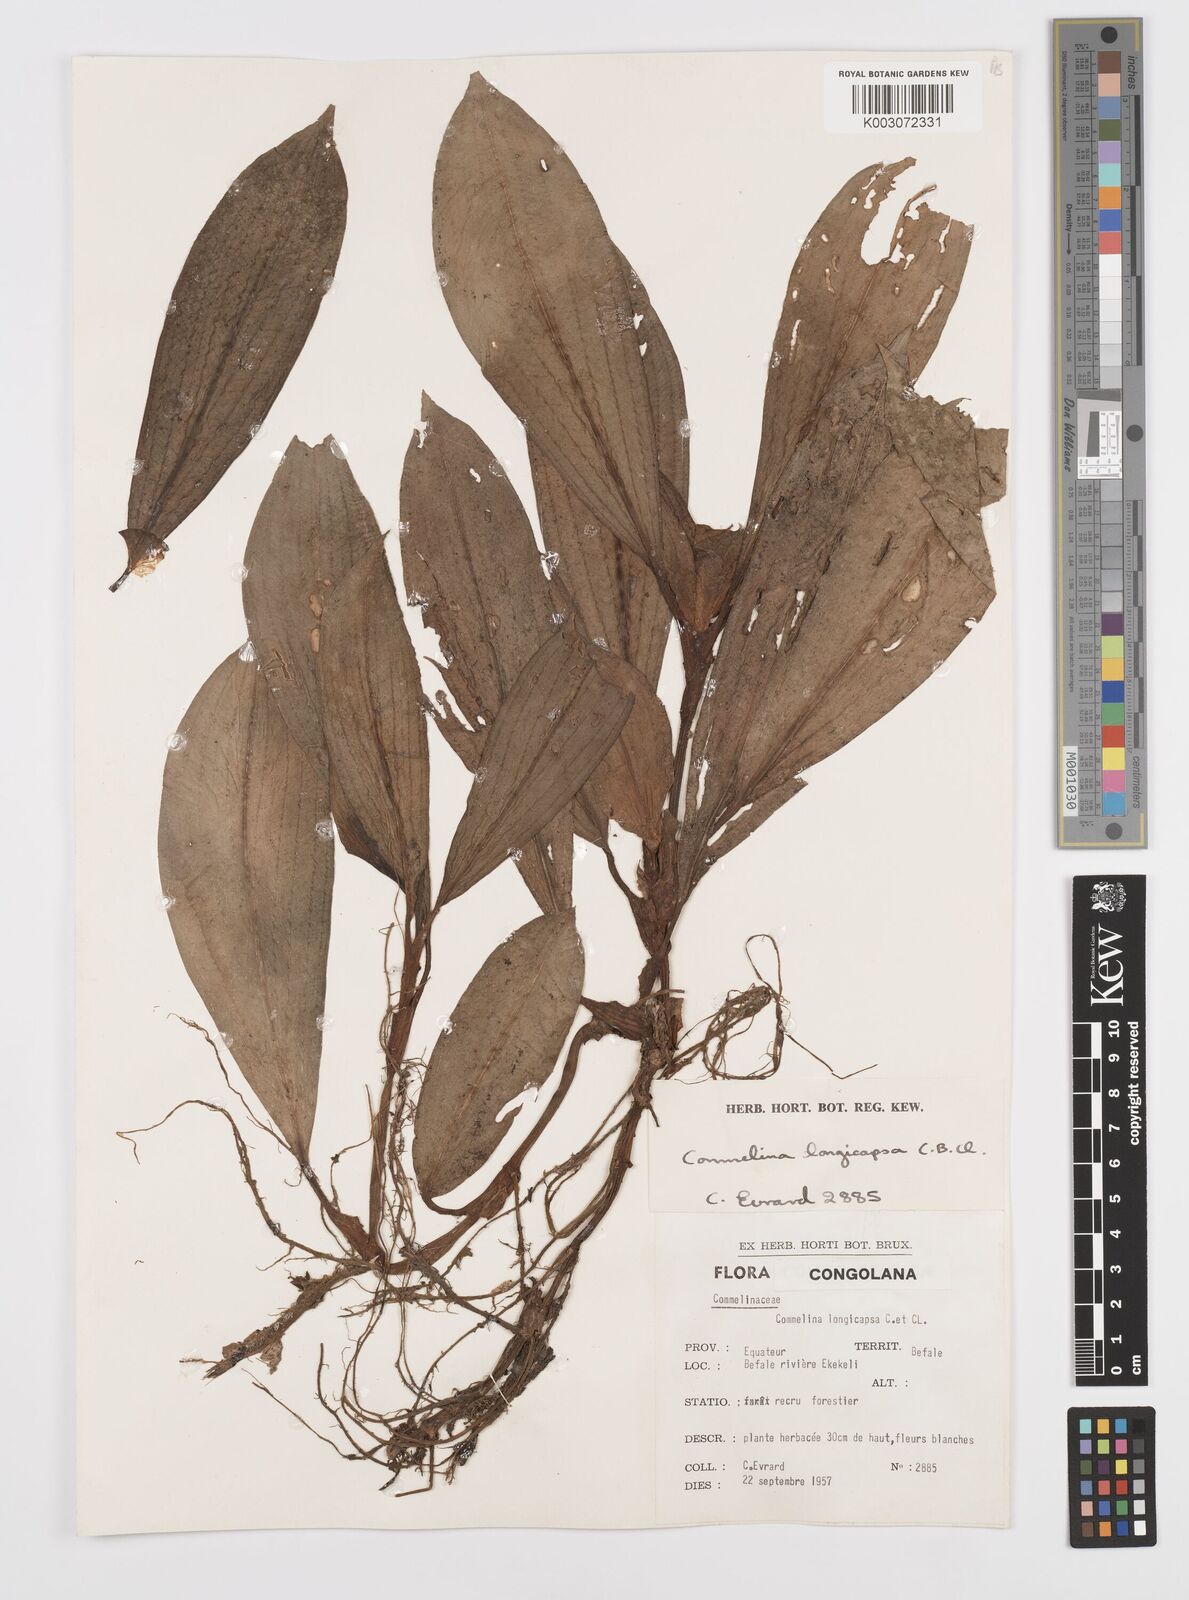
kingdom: Plantae
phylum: Tracheophyta
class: Liliopsida
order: Commelinales
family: Commelinaceae
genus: Commelina
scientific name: Commelina longicapsa
